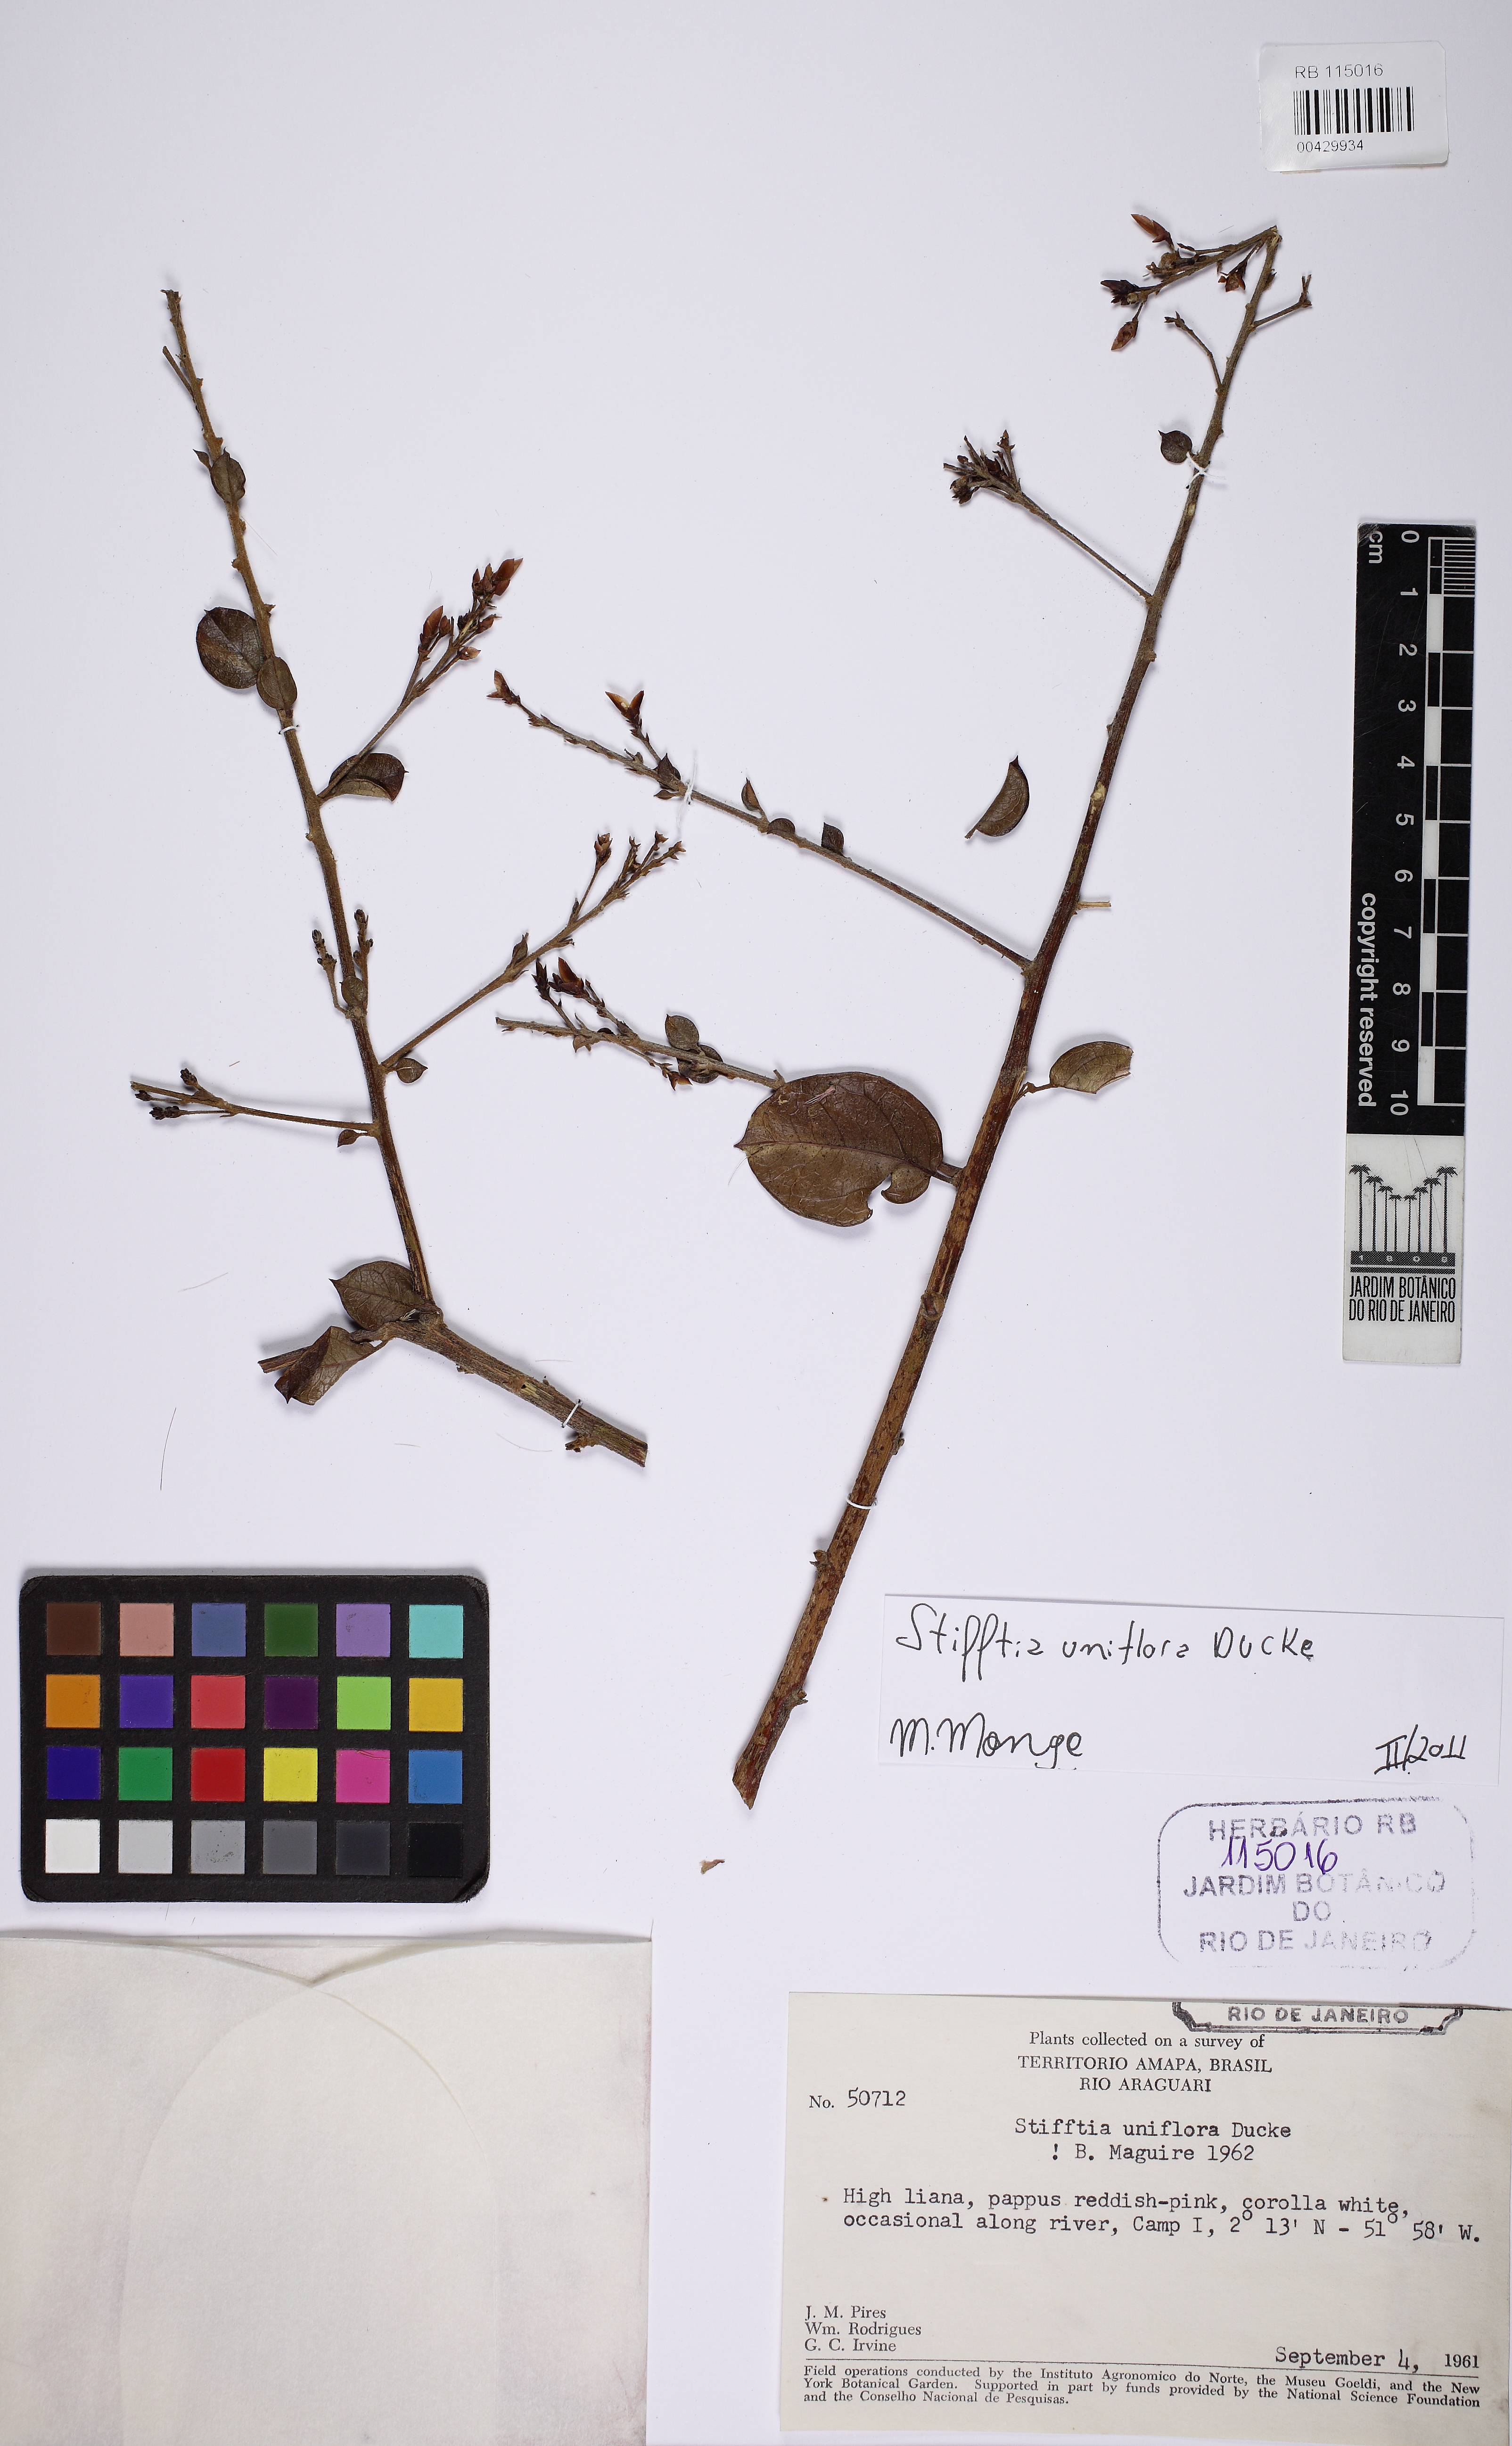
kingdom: Plantae
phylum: Tracheophyta
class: Magnoliopsida
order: Asterales
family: Asteraceae
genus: Stifftia
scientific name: Stifftia uniflora
